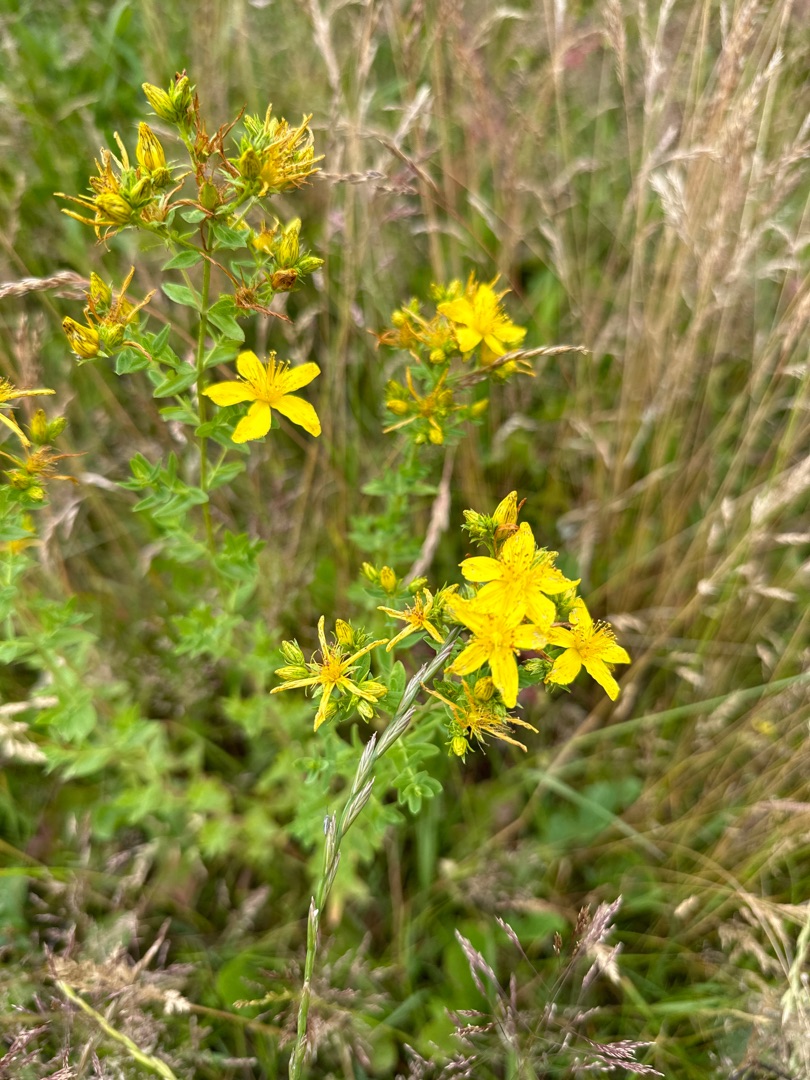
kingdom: Plantae
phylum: Tracheophyta
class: Magnoliopsida
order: Malpighiales
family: Hypericaceae
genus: Hypericum
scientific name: Hypericum perforatum
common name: Prikbladet perikon
